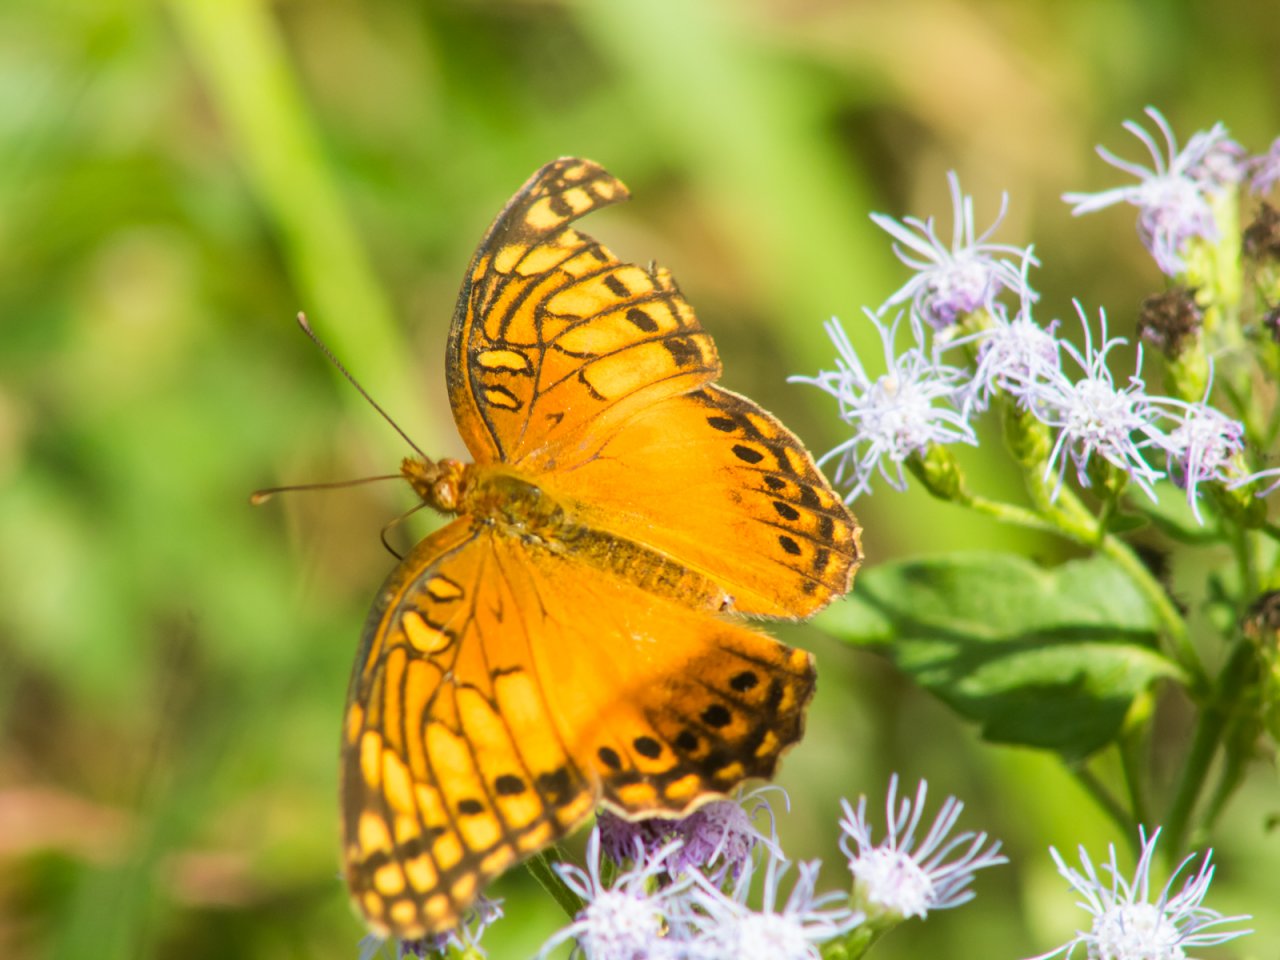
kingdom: Animalia
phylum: Arthropoda
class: Insecta
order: Lepidoptera
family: Nymphalidae
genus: Euptoieta
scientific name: Euptoieta hegesia
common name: Mexican Fritillary
